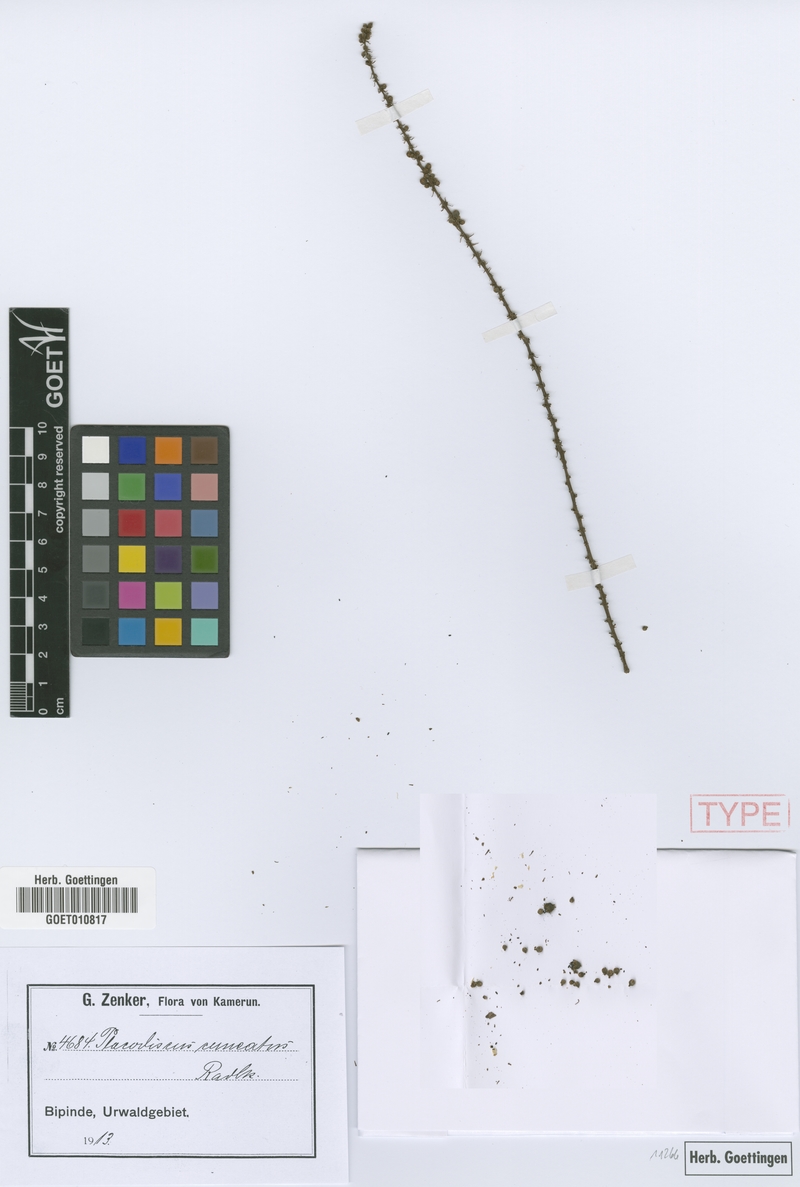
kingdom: Plantae
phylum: Tracheophyta
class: Magnoliopsida
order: Sapindales
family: Sapindaceae
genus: Placodiscus
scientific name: Placodiscus angustifolius
